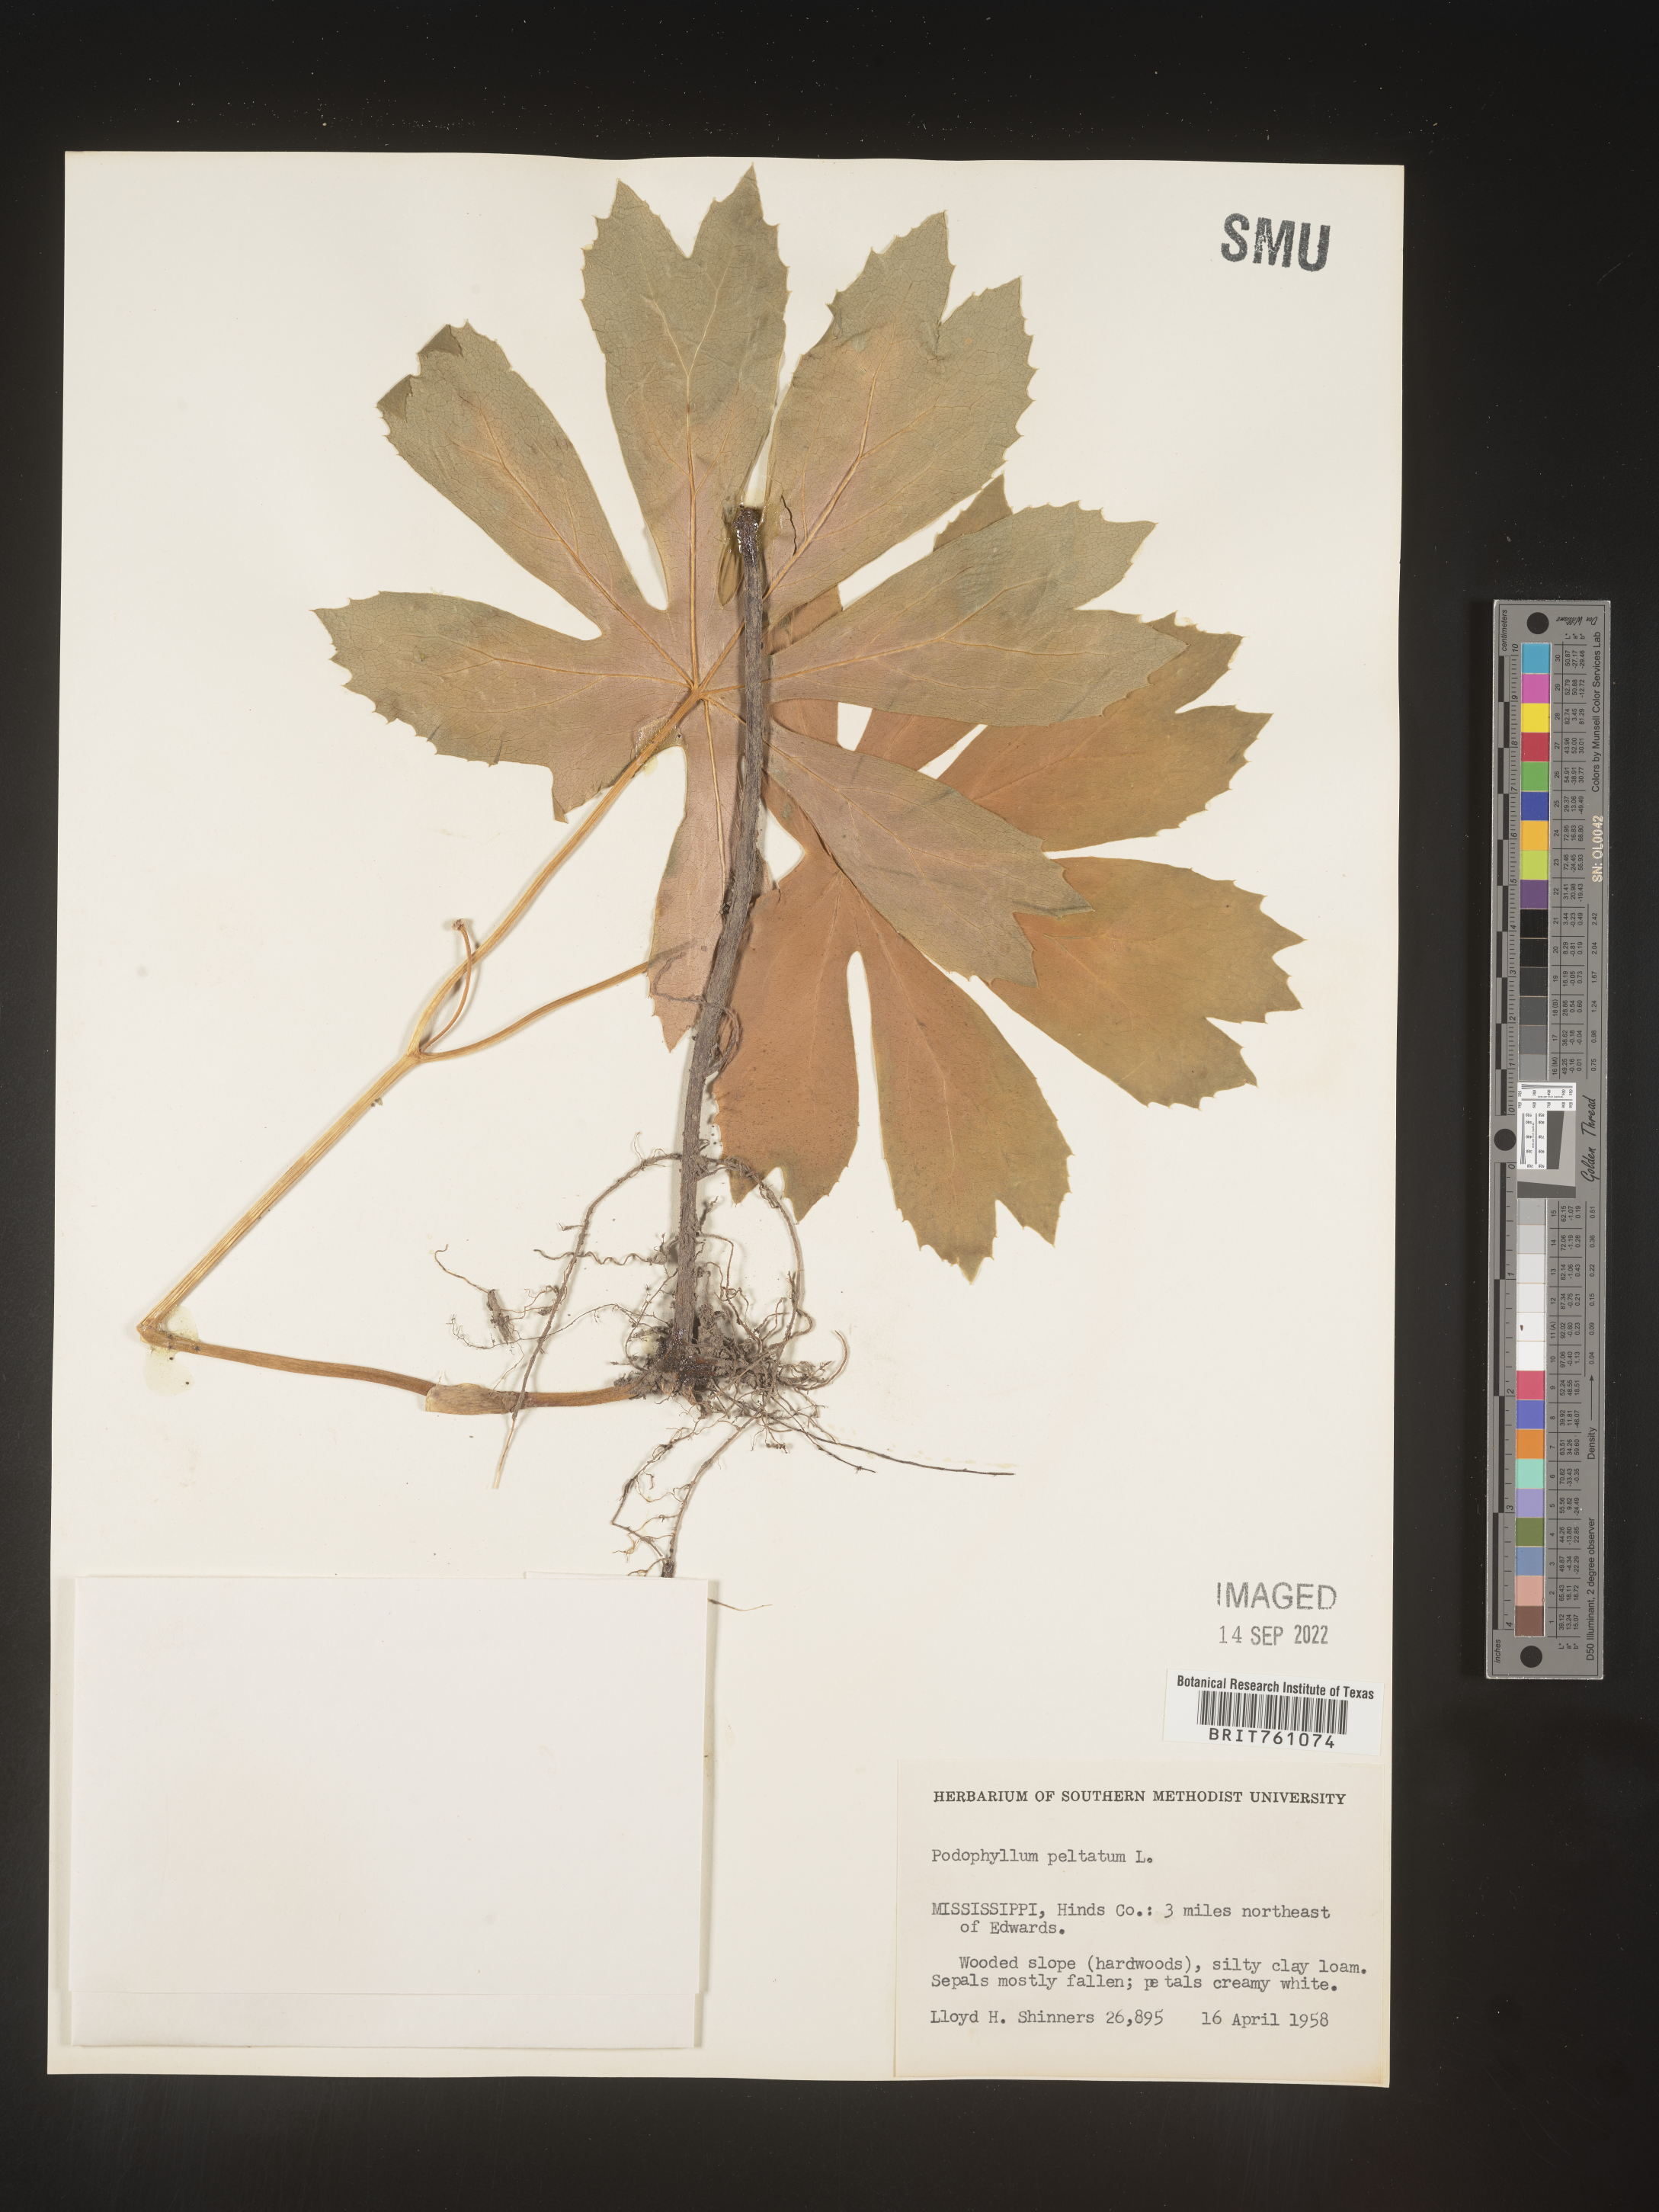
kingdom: Plantae
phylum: Tracheophyta
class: Magnoliopsida
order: Ranunculales
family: Berberidaceae
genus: Podophyllum
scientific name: Podophyllum peltatum
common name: Wild mandrake
